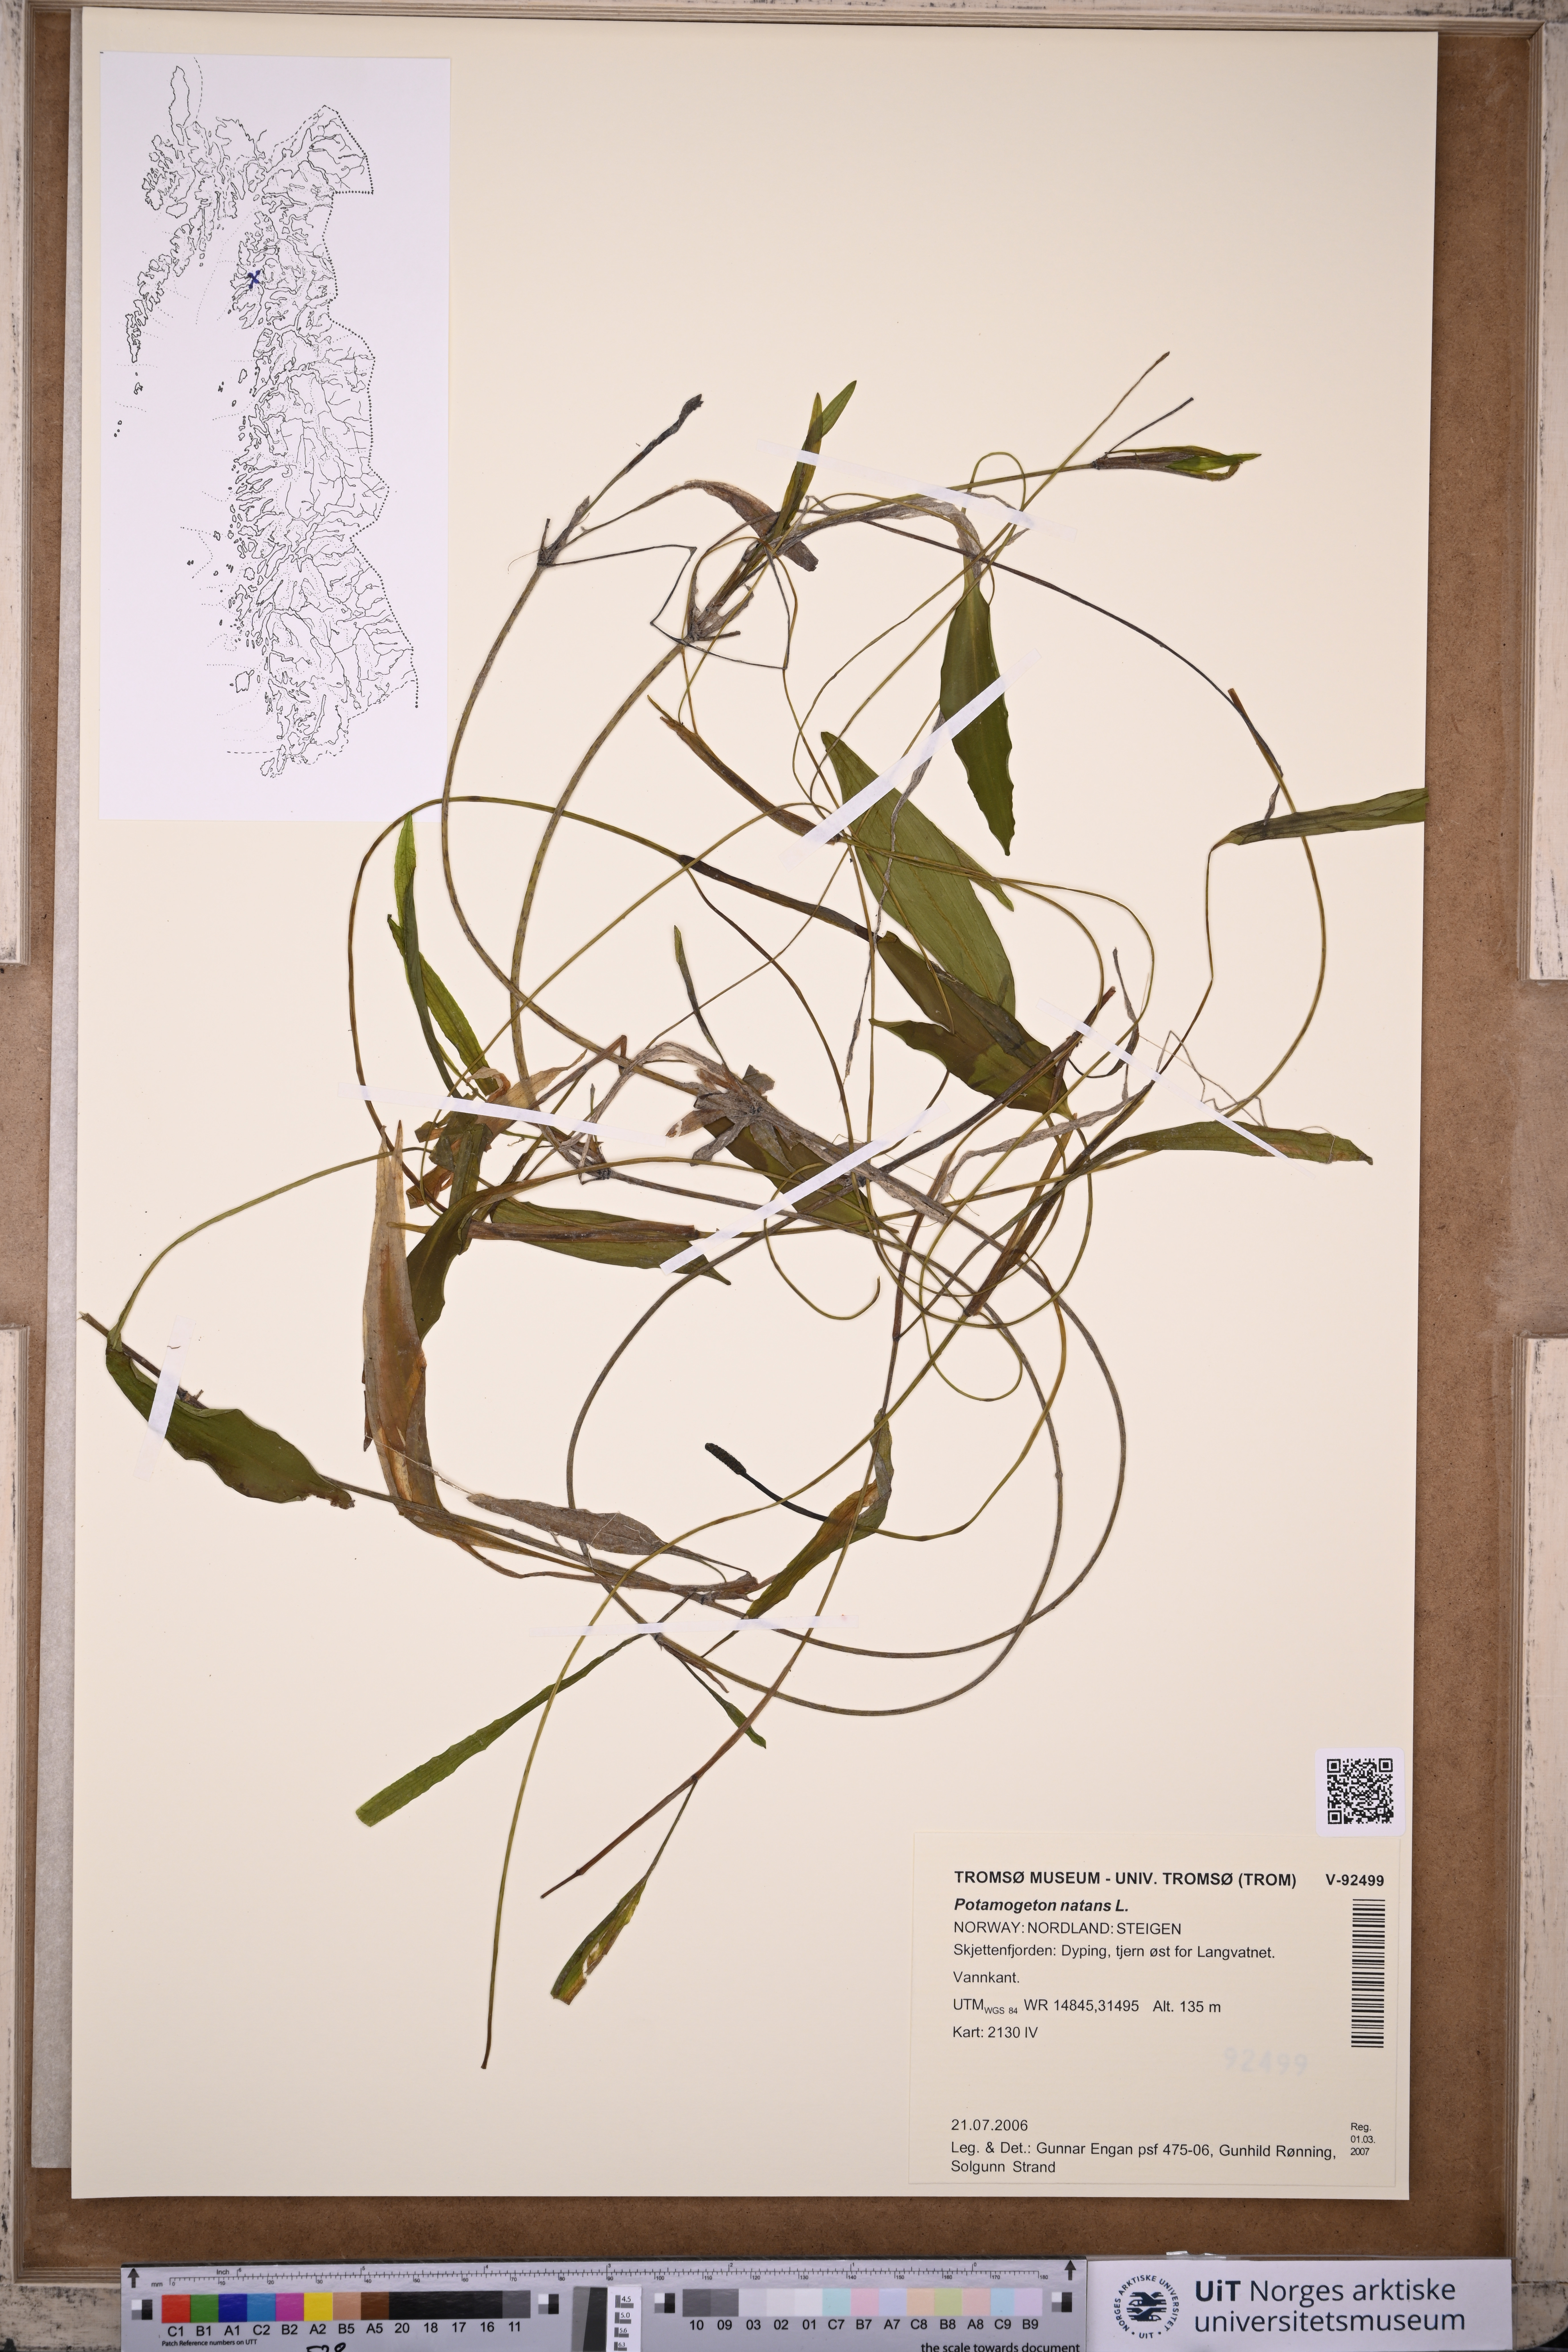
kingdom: Plantae
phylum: Tracheophyta
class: Liliopsida
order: Alismatales
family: Potamogetonaceae
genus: Potamogeton
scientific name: Potamogeton natans
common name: Broad-leaved pondweed
